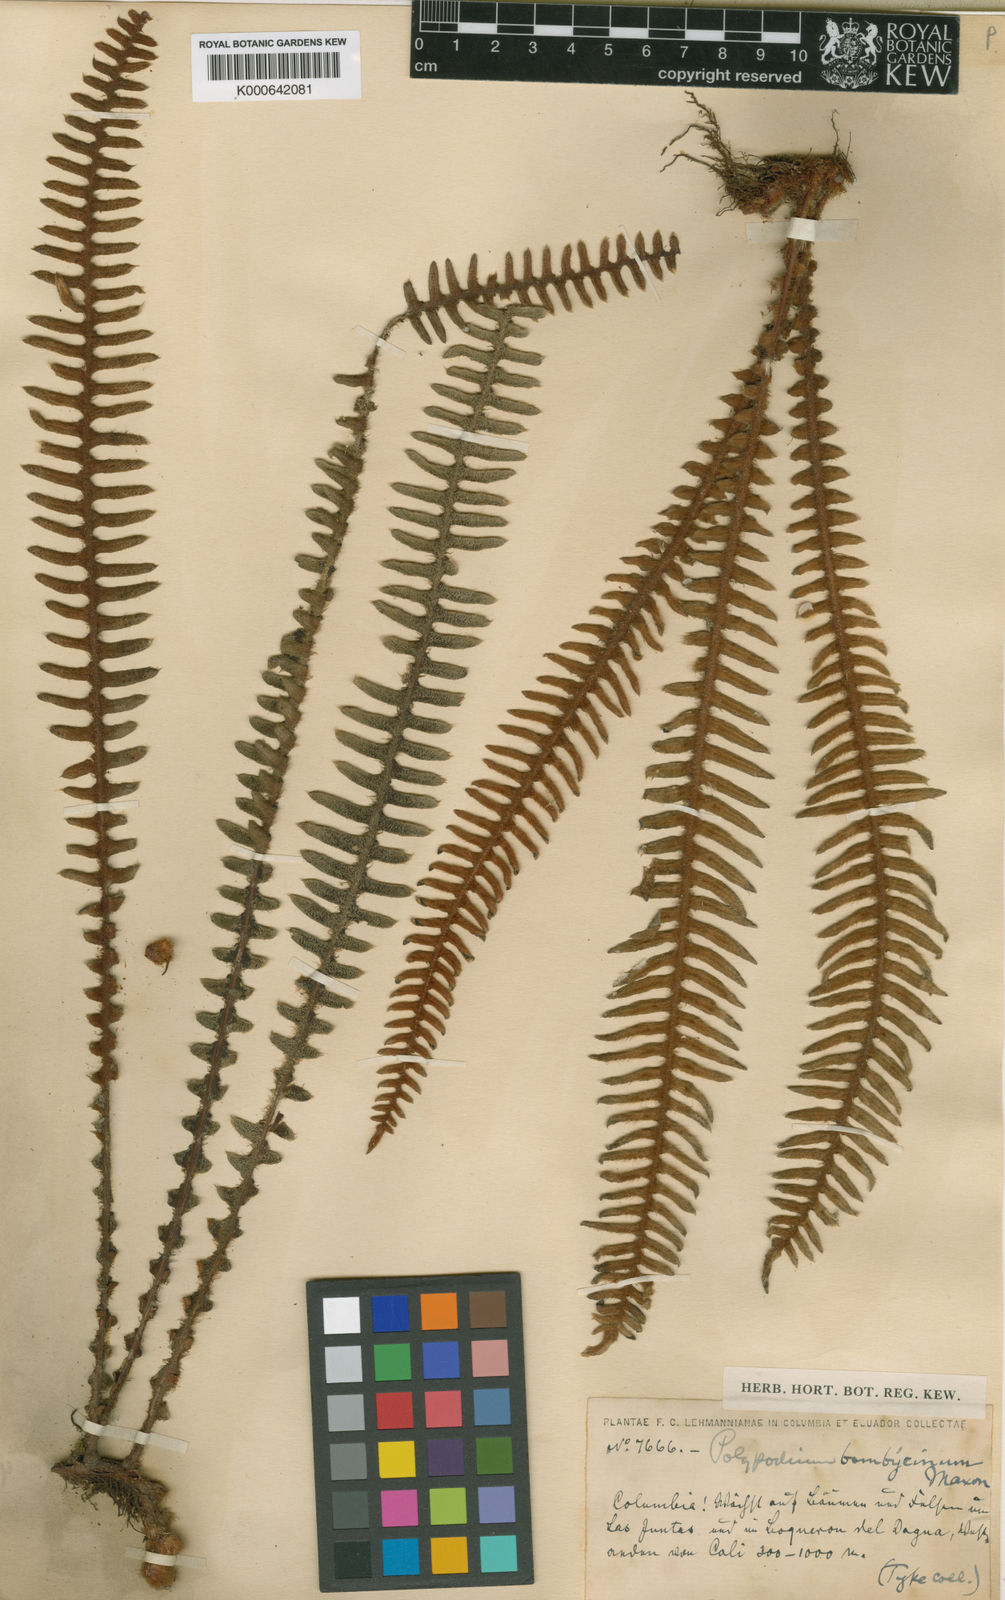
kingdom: Plantae
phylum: Tracheophyta
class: Polypodiopsida
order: Polypodiales
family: Polypodiaceae
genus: Pleopeltis
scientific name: Pleopeltis bombycina
